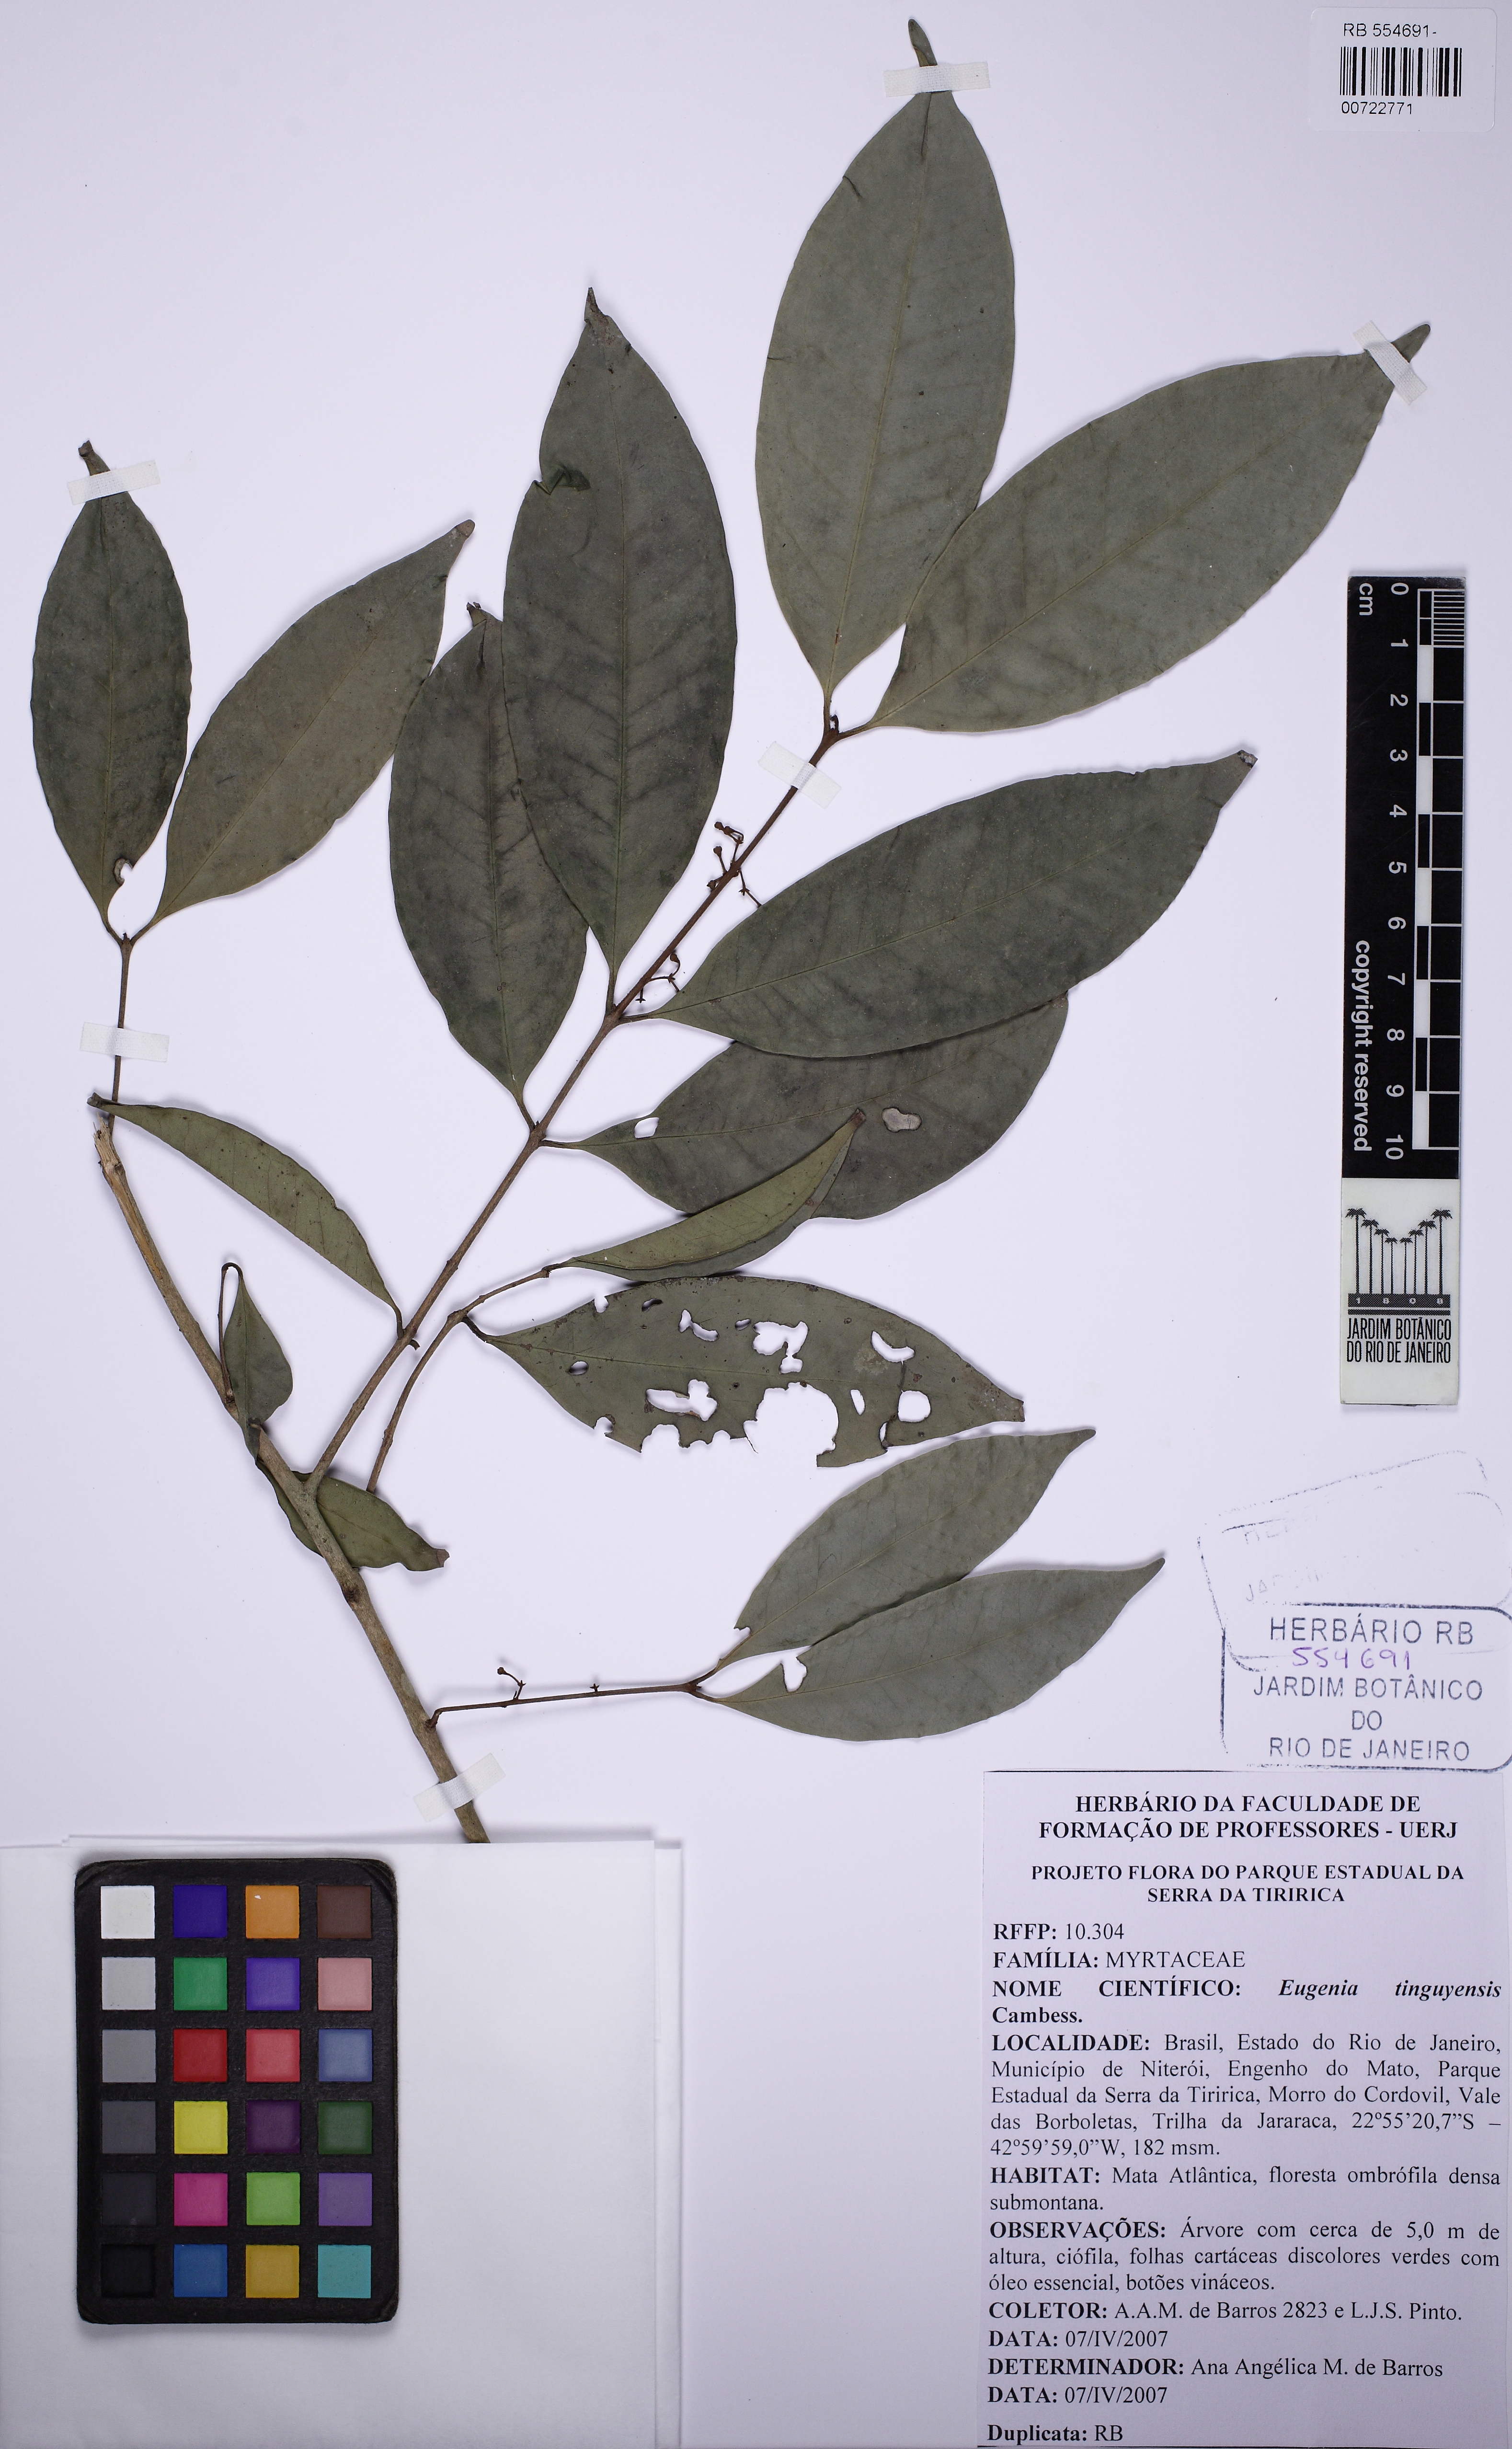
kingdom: Plantae
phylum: Tracheophyta
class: Magnoliopsida
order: Myrtales
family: Myrtaceae
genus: Eugenia
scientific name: Eugenia candolleana
